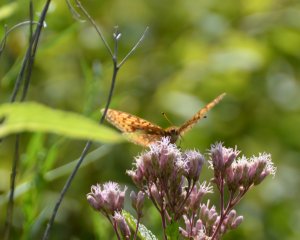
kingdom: Animalia
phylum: Arthropoda
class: Insecta
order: Lepidoptera
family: Nymphalidae
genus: Speyeria
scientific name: Speyeria atlantis
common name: Atlantis Fritillary
